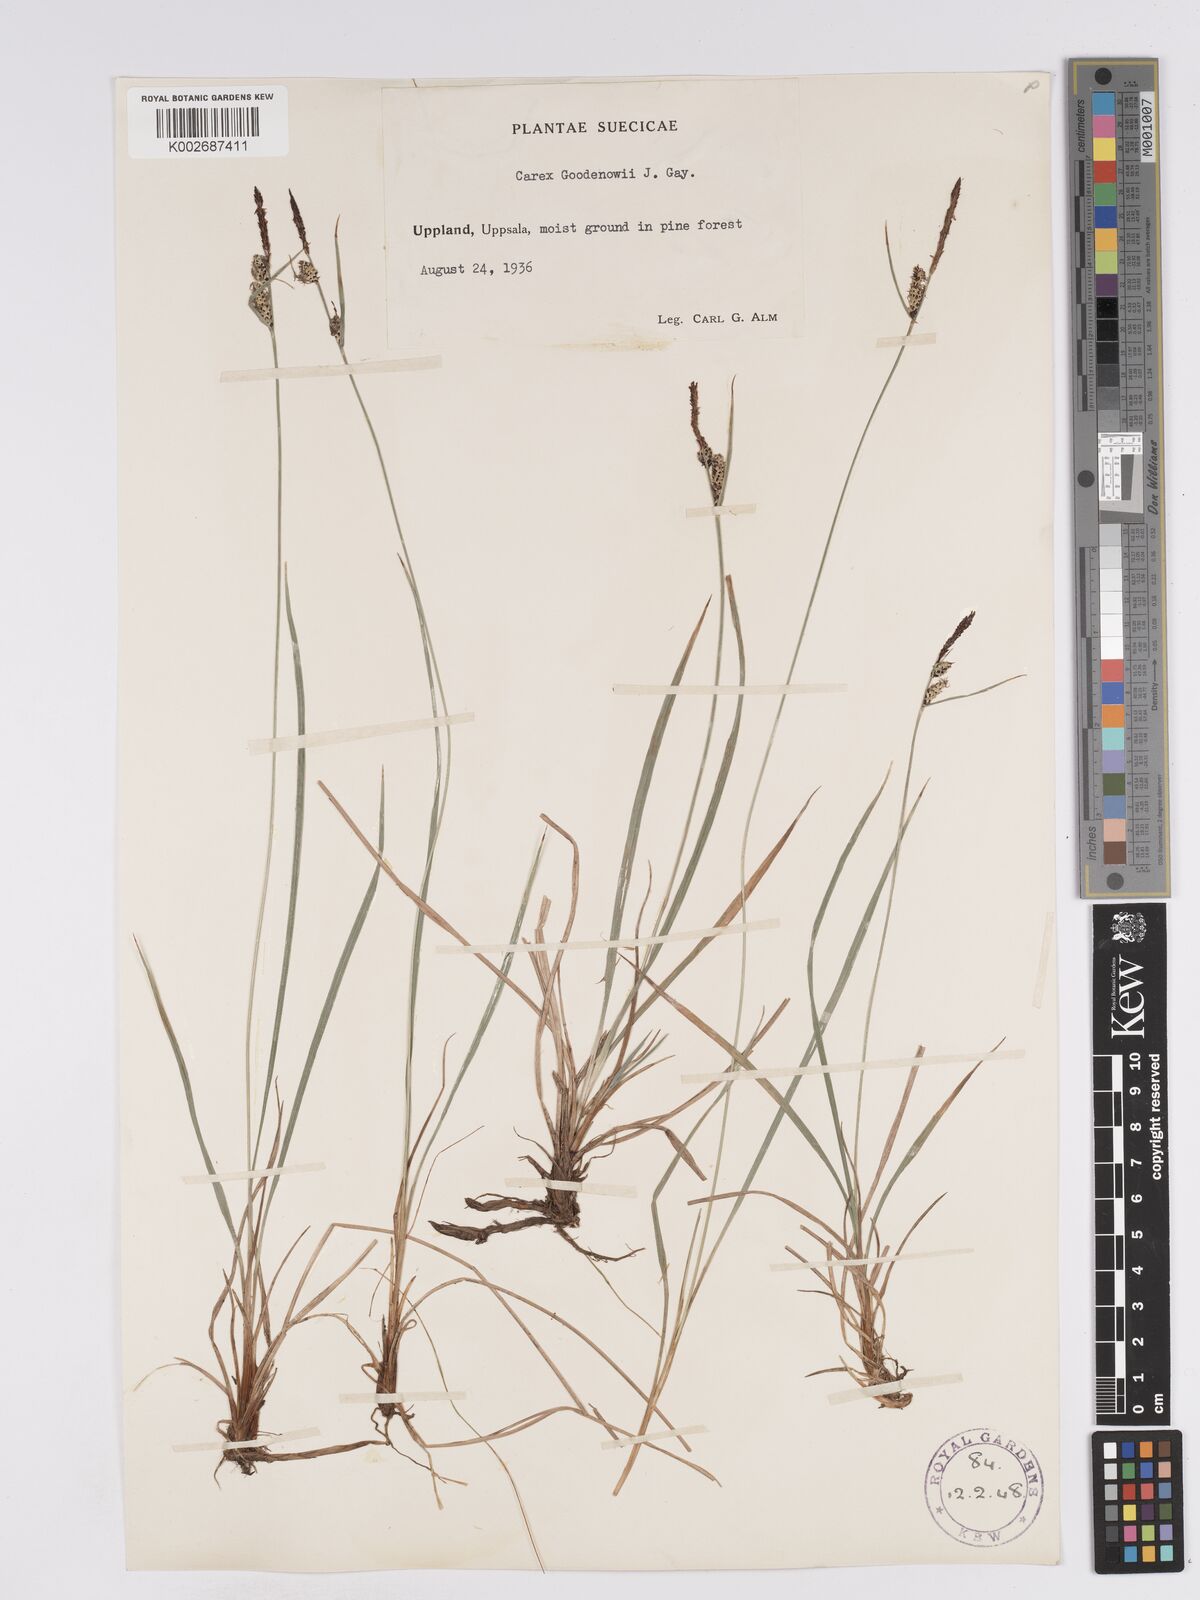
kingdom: Plantae
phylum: Tracheophyta
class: Liliopsida
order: Poales
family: Cyperaceae
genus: Carex
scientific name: Carex nigra
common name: Common sedge
